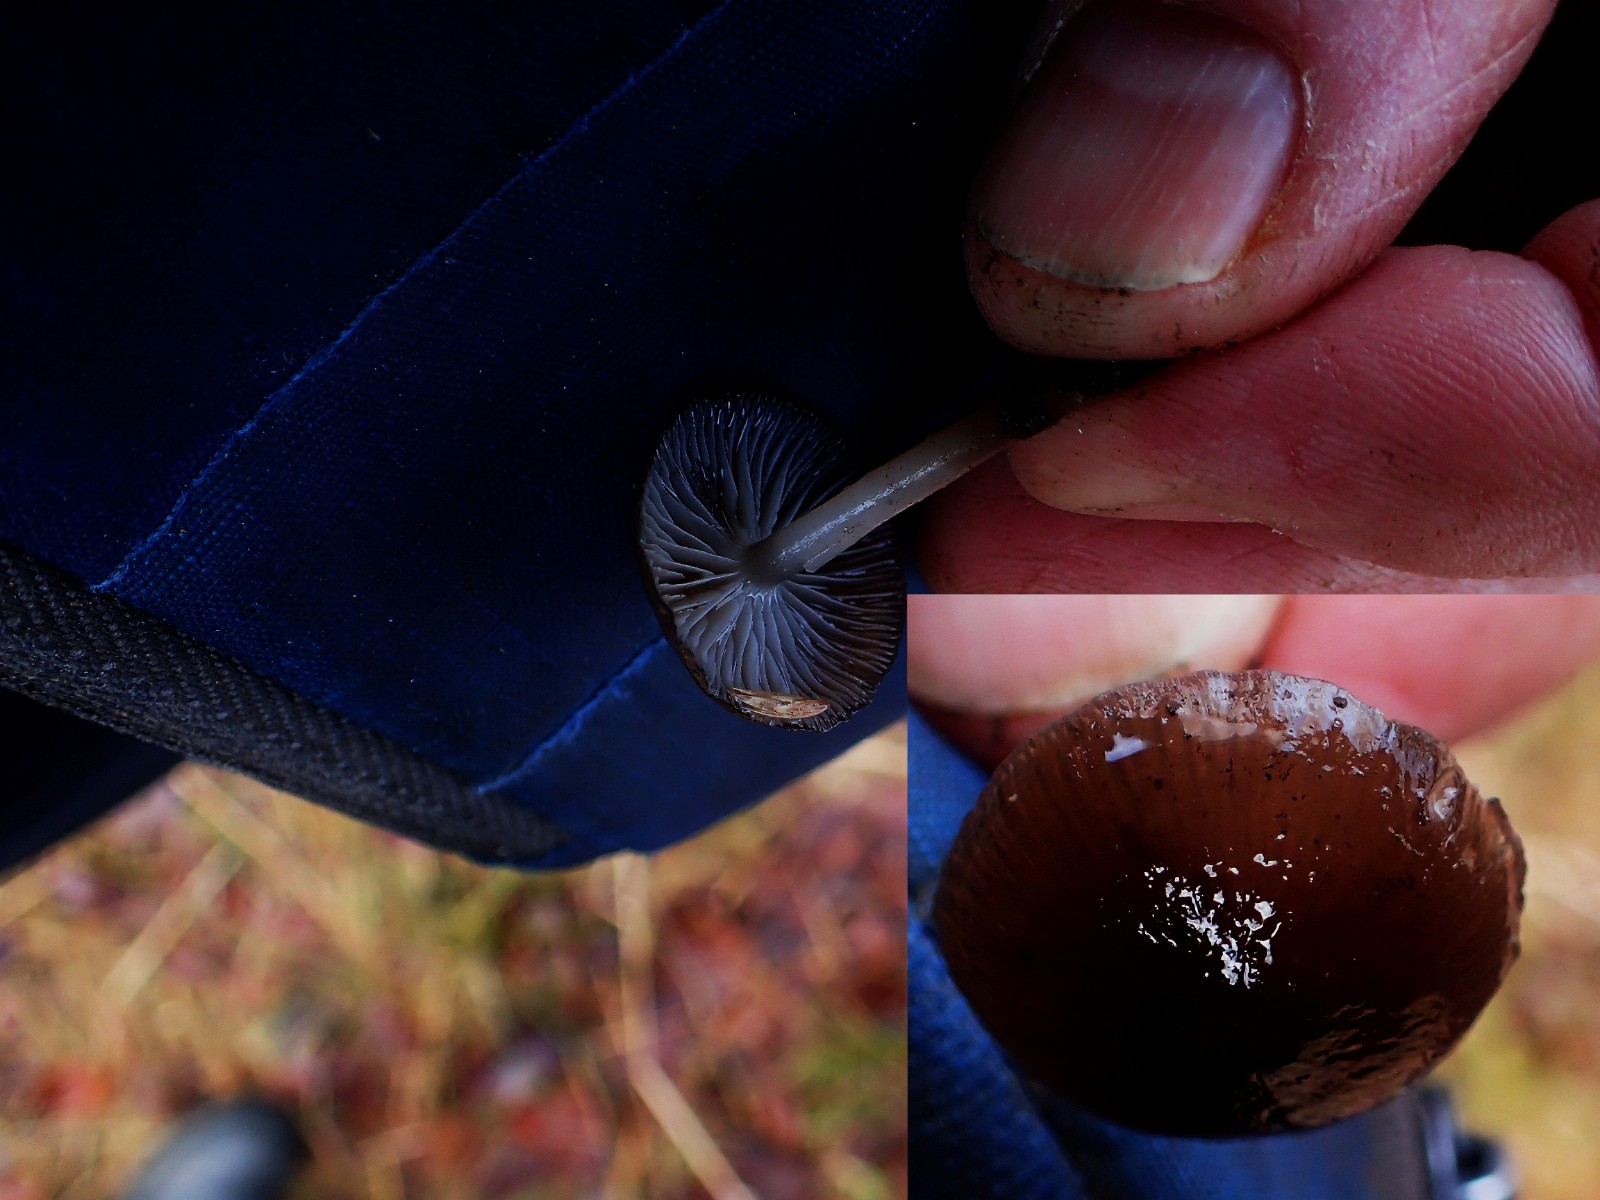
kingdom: Fungi
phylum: Basidiomycota
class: Agaricomycetes
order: Agaricales
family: Mycenaceae
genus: Mycena
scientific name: Mycena tintinnabulum
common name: vinter-huesvamp
